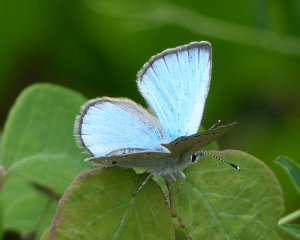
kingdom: Animalia
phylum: Arthropoda
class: Insecta
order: Lepidoptera
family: Lycaenidae
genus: Glaucopsyche
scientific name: Glaucopsyche lygdamus
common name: Silvery Blue
